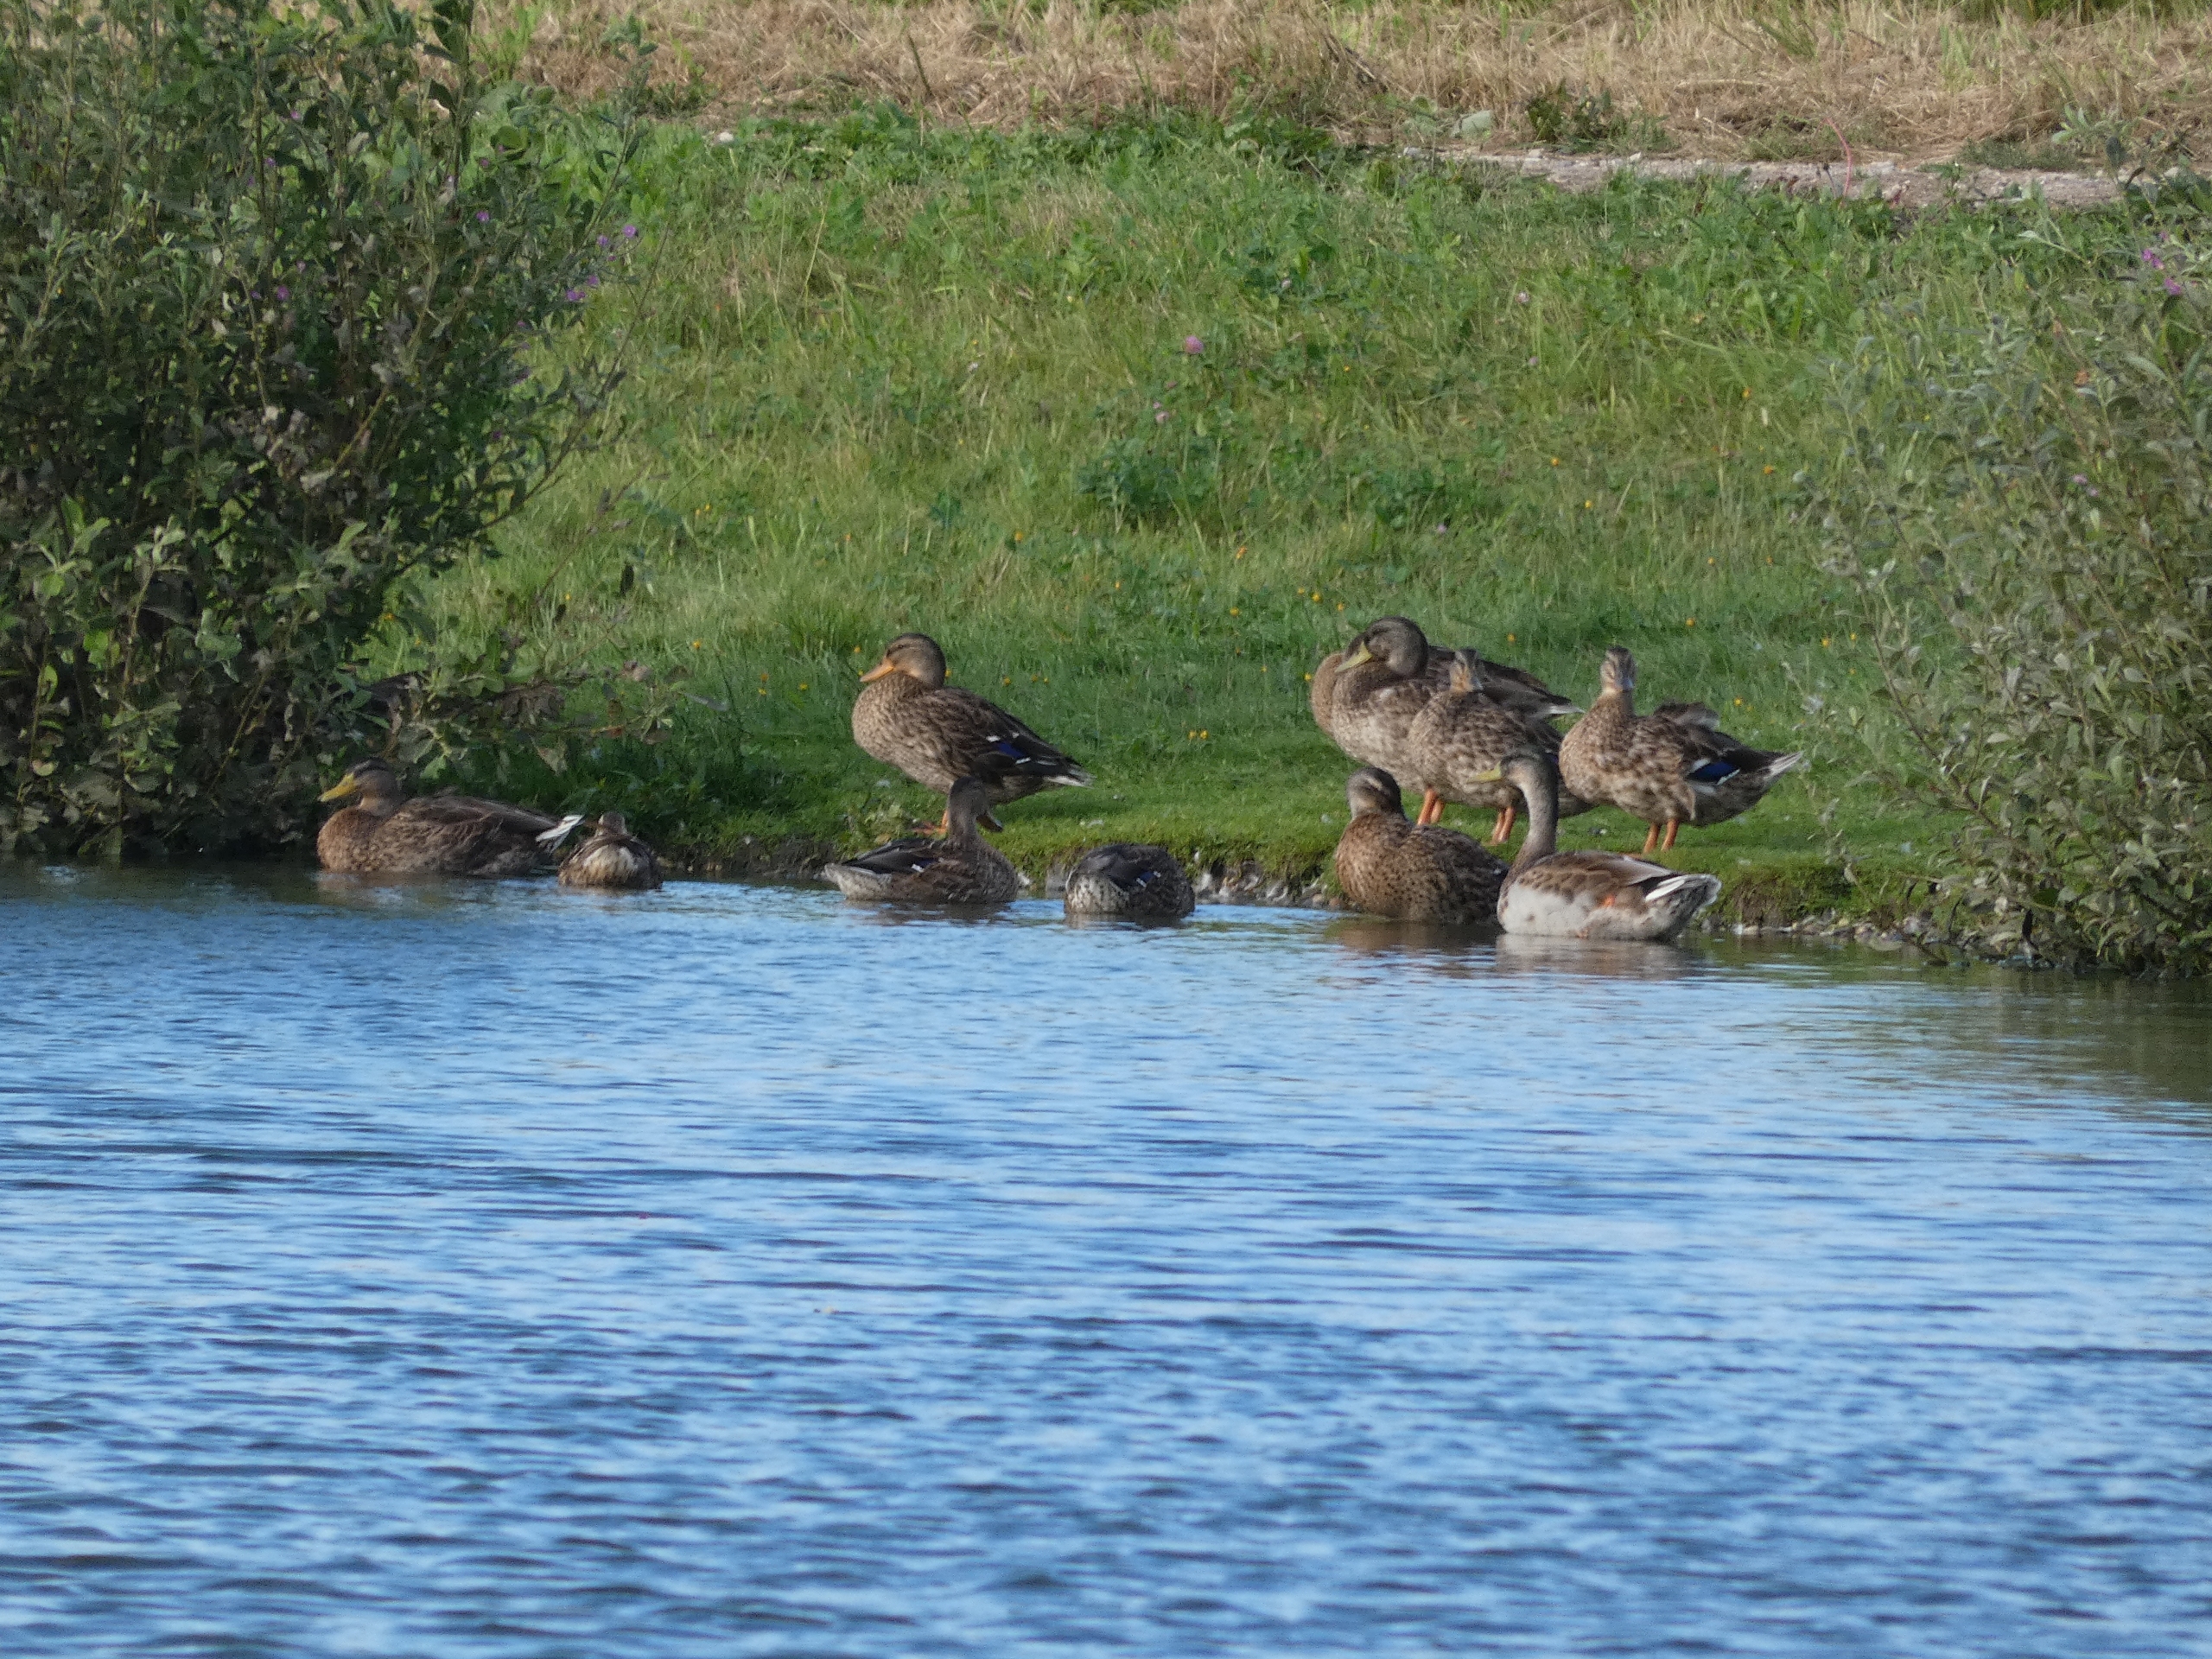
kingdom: Animalia
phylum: Chordata
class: Aves
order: Anseriformes
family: Anatidae
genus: Anas
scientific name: Anas platyrhynchos
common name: Gråand
